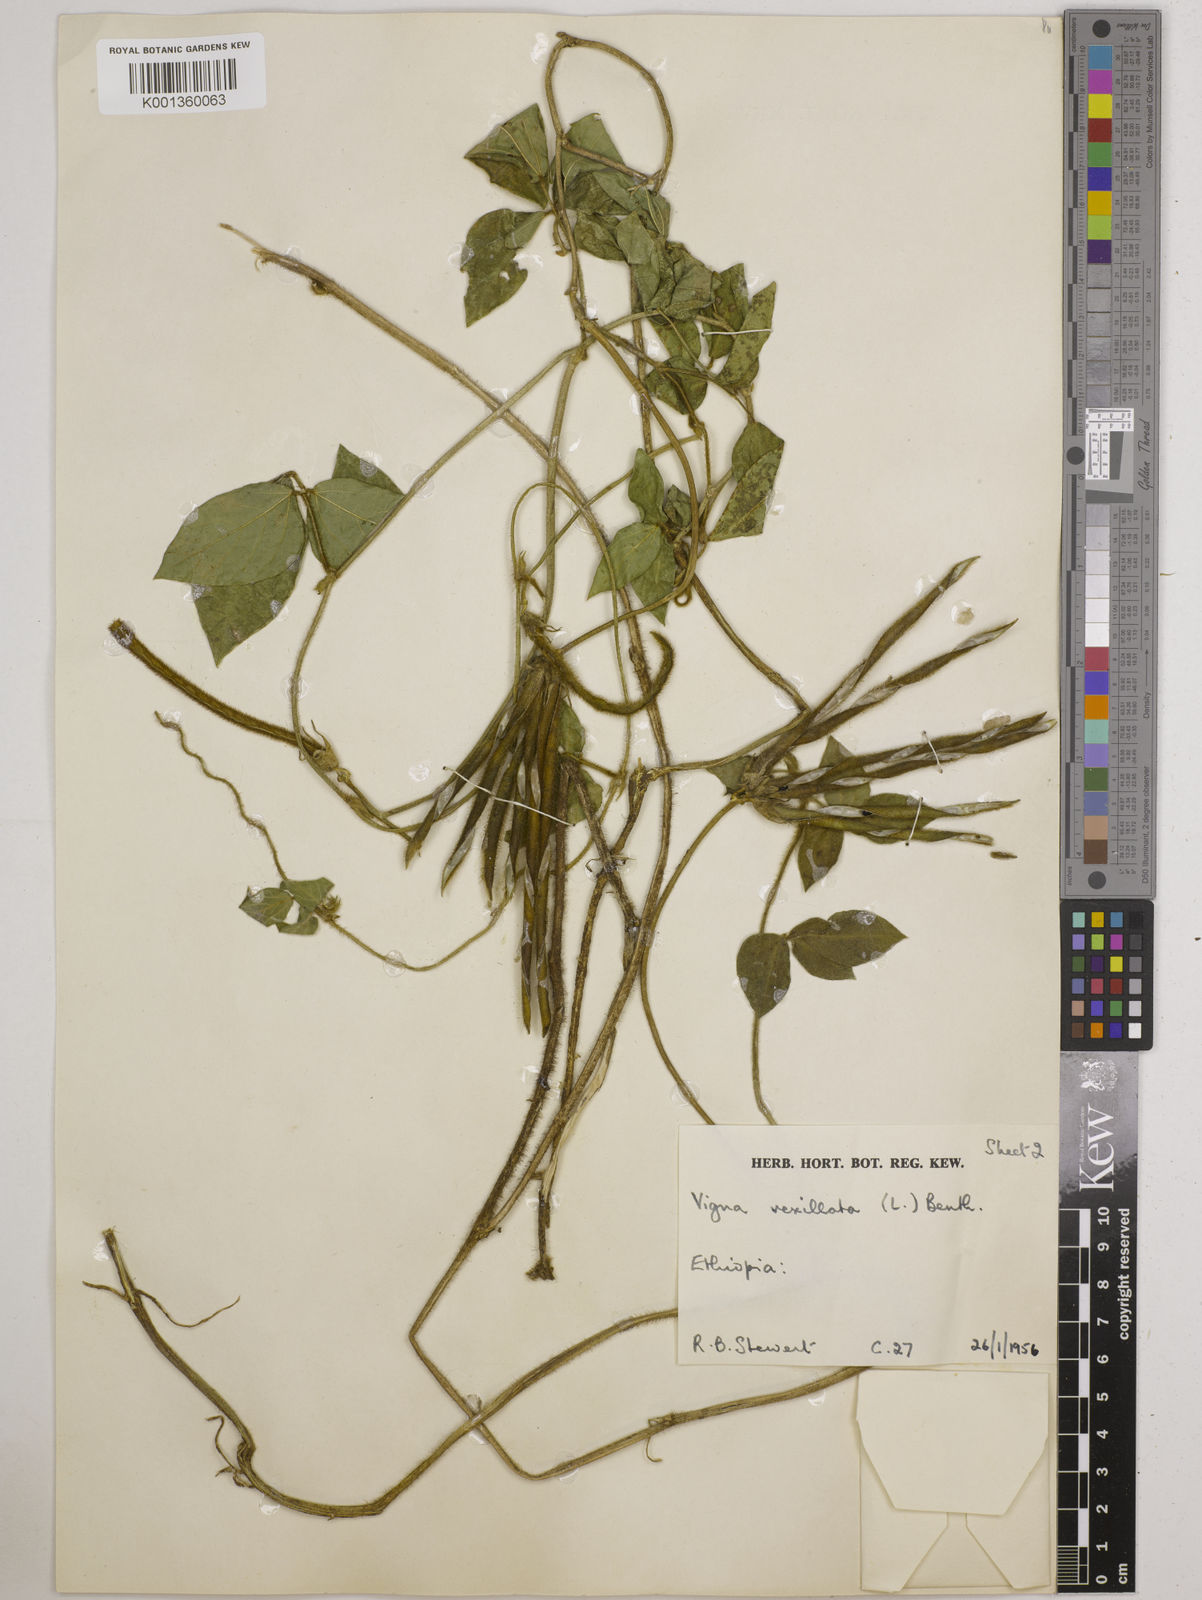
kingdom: Plantae
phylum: Tracheophyta
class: Magnoliopsida
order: Fabales
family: Fabaceae
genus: Vigna
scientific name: Vigna vexillata
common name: Zombi pea
